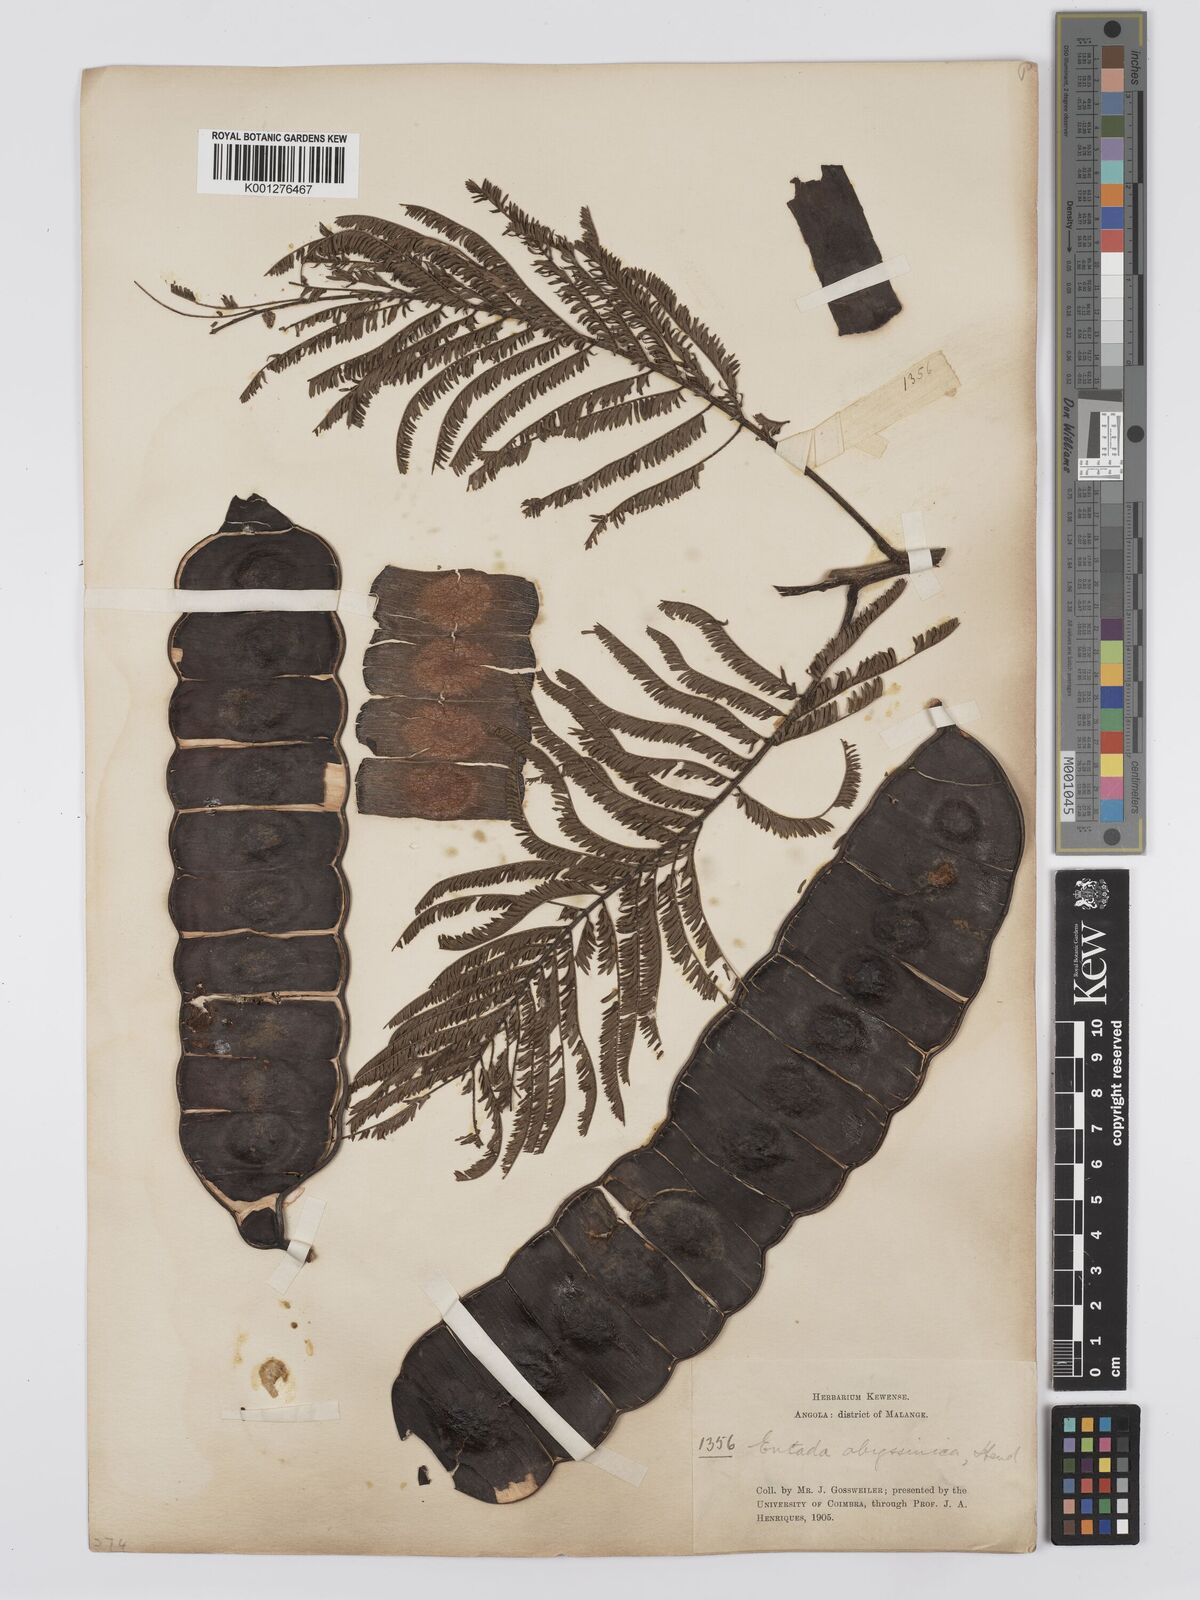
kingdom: Plantae
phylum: Tracheophyta
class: Magnoliopsida
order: Fabales
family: Fabaceae
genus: Entada
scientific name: Entada abyssinica
